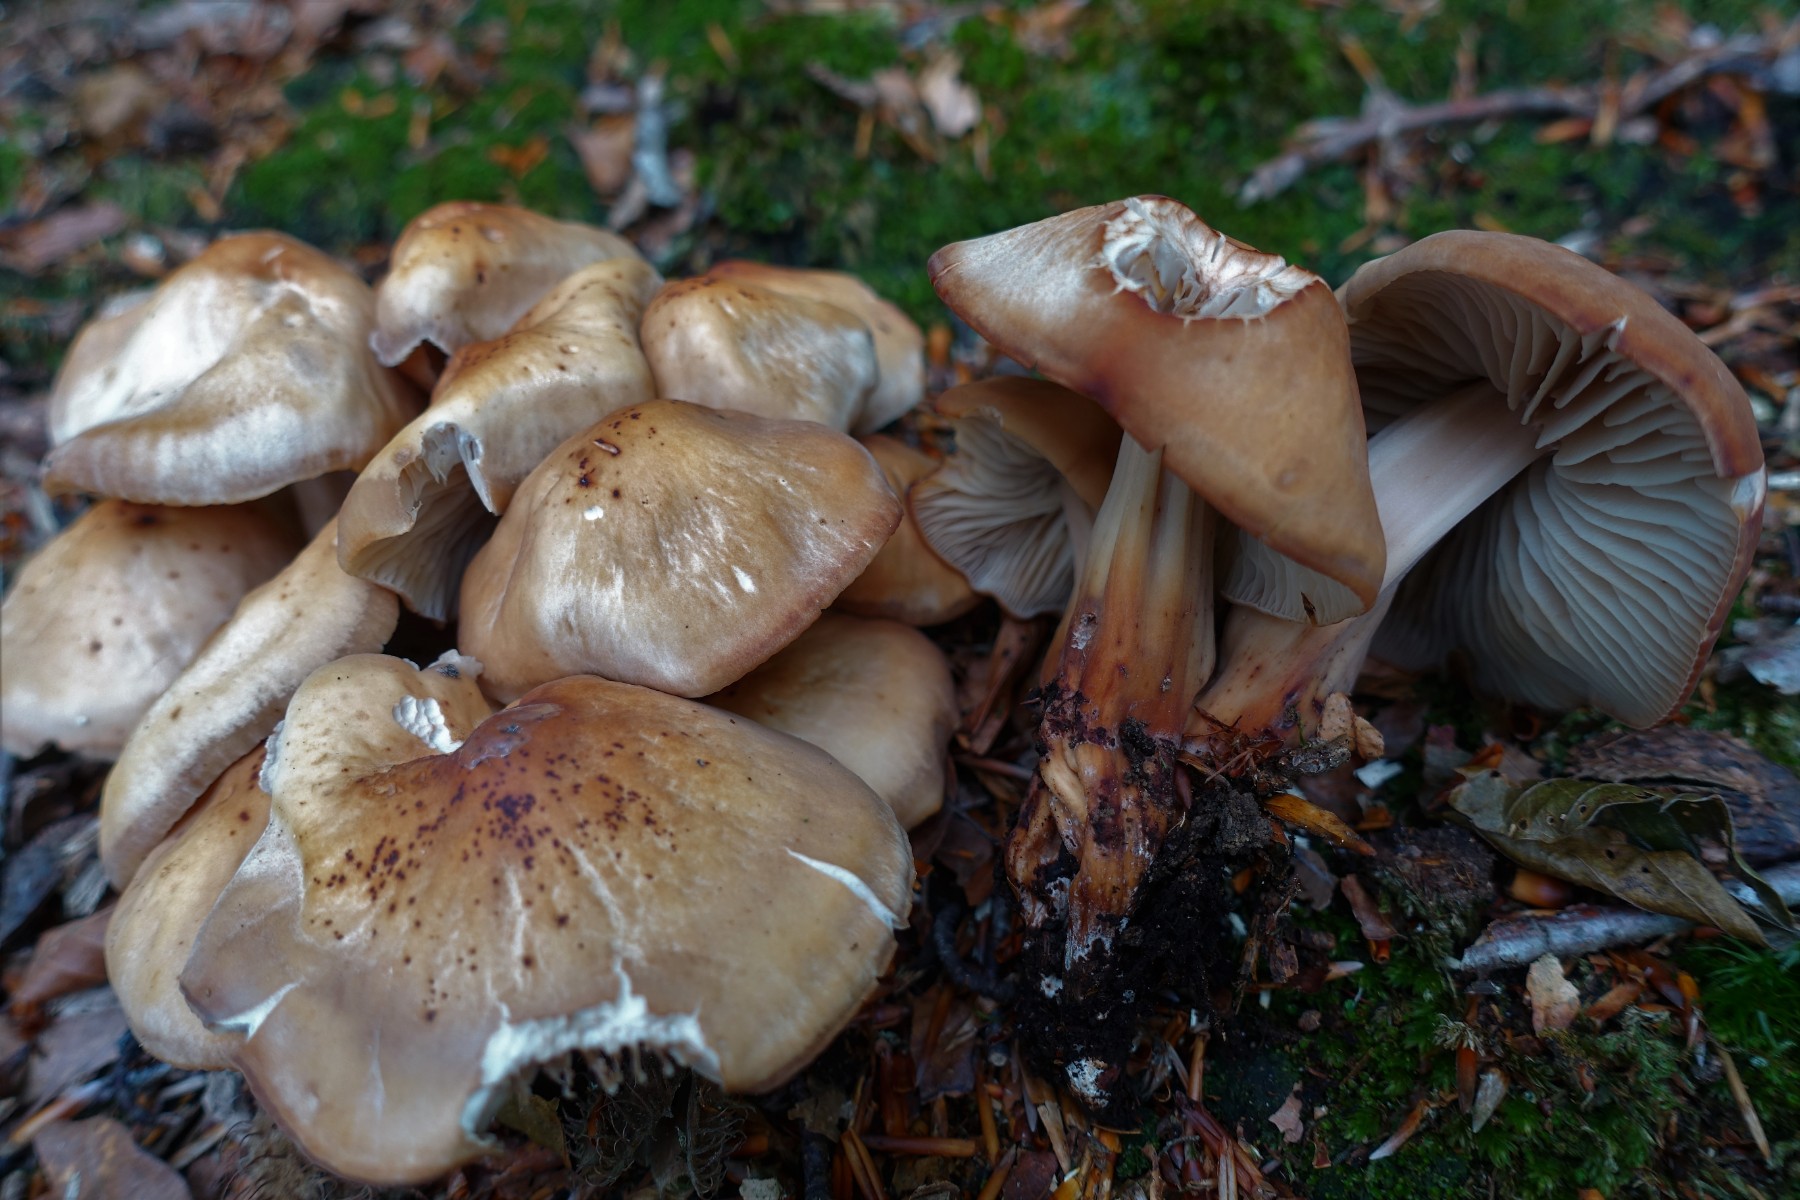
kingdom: Fungi
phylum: Basidiomycota
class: Agaricomycetes
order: Agaricales
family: Omphalotaceae
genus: Gymnopus
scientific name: Gymnopus fusipes
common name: tenstokket fladhat
